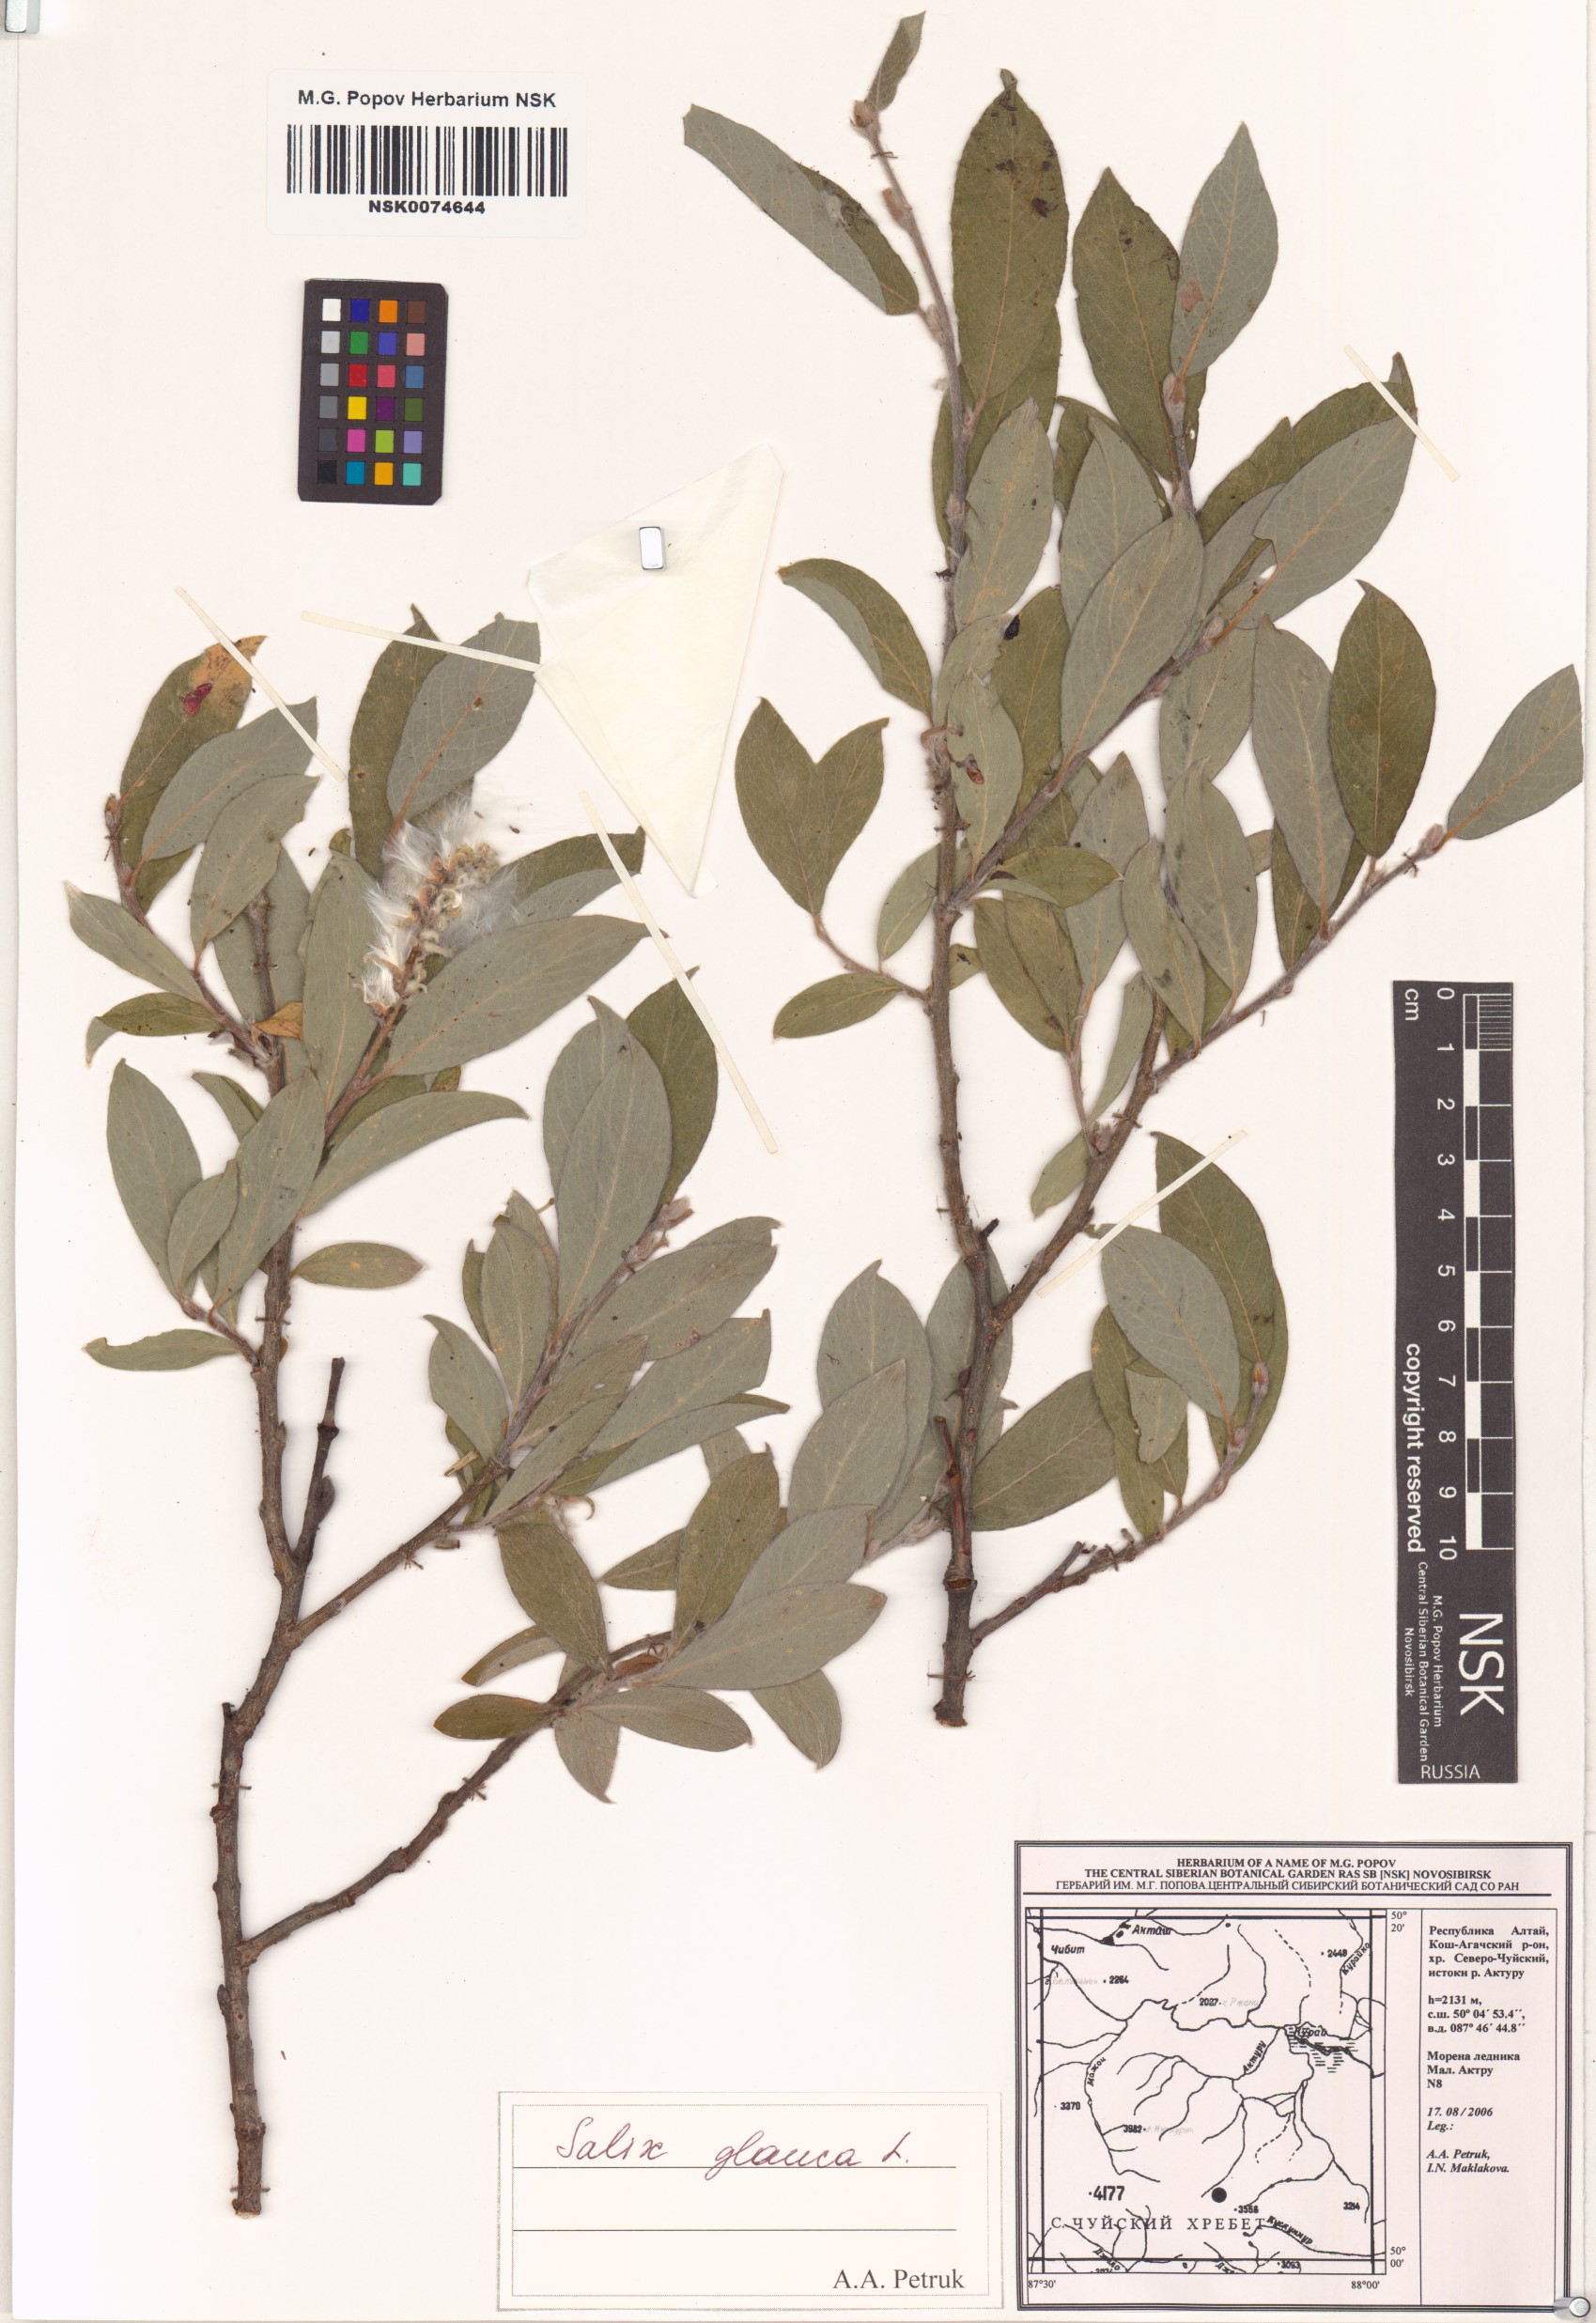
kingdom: Plantae
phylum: Tracheophyta
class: Magnoliopsida
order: Malpighiales
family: Salicaceae
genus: Salix
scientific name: Salix glauca
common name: Glaucous willow
